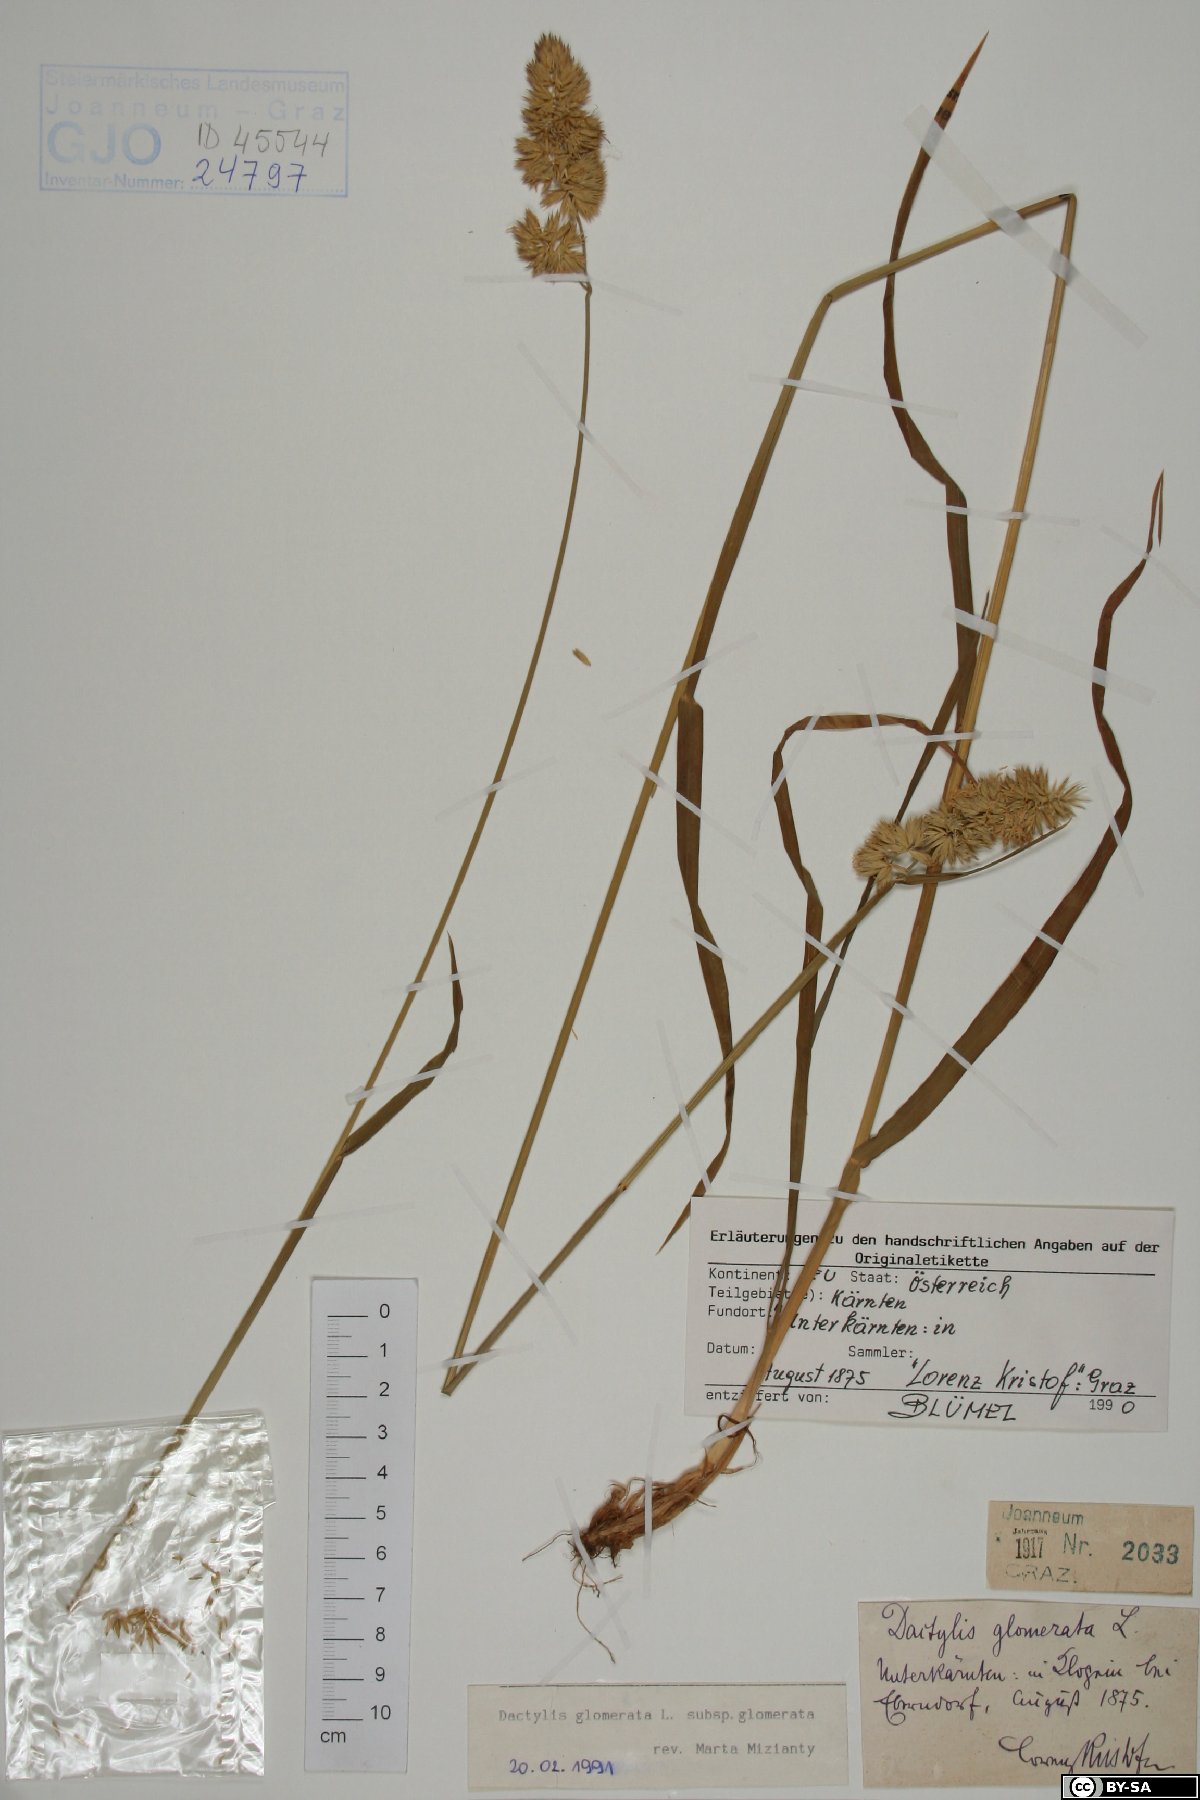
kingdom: Plantae
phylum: Tracheophyta
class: Liliopsida
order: Poales
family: Poaceae
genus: Dactylis
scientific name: Dactylis glomerata
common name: Orchardgrass
